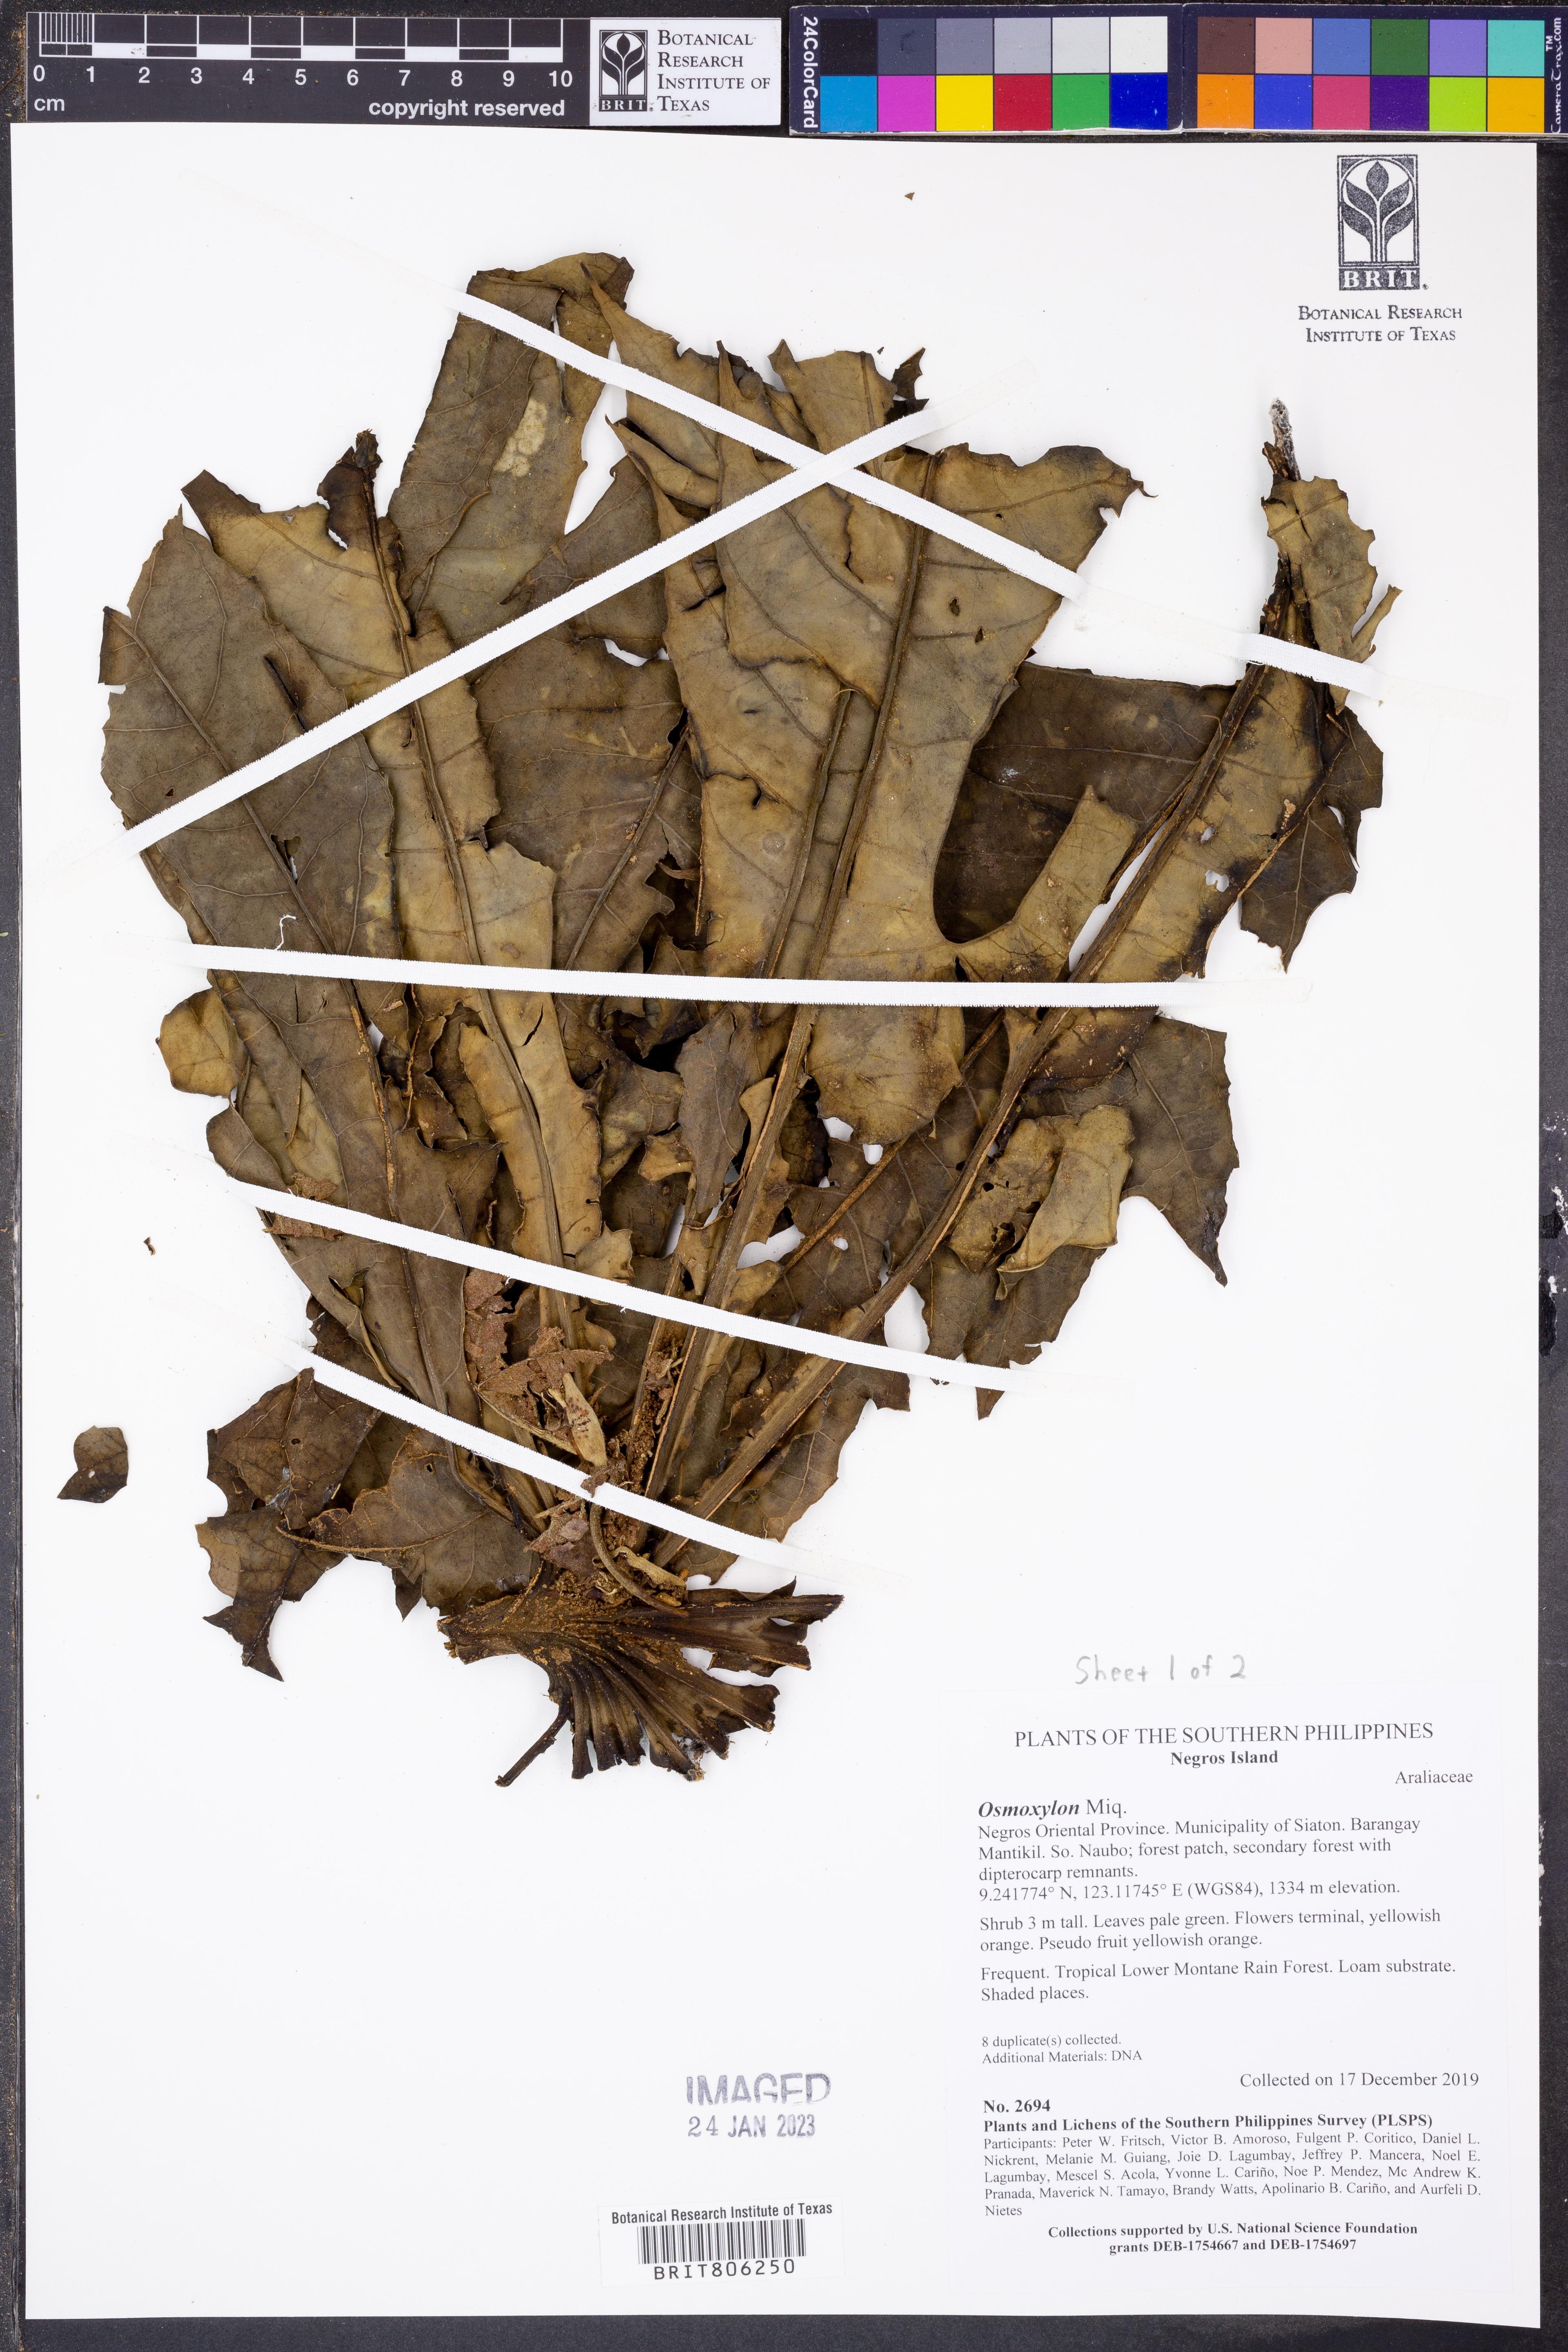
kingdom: Plantae
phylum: Tracheophyta
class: Magnoliopsida
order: Apiales
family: Araliaceae
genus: Osmoxylon
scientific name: Osmoxylon
